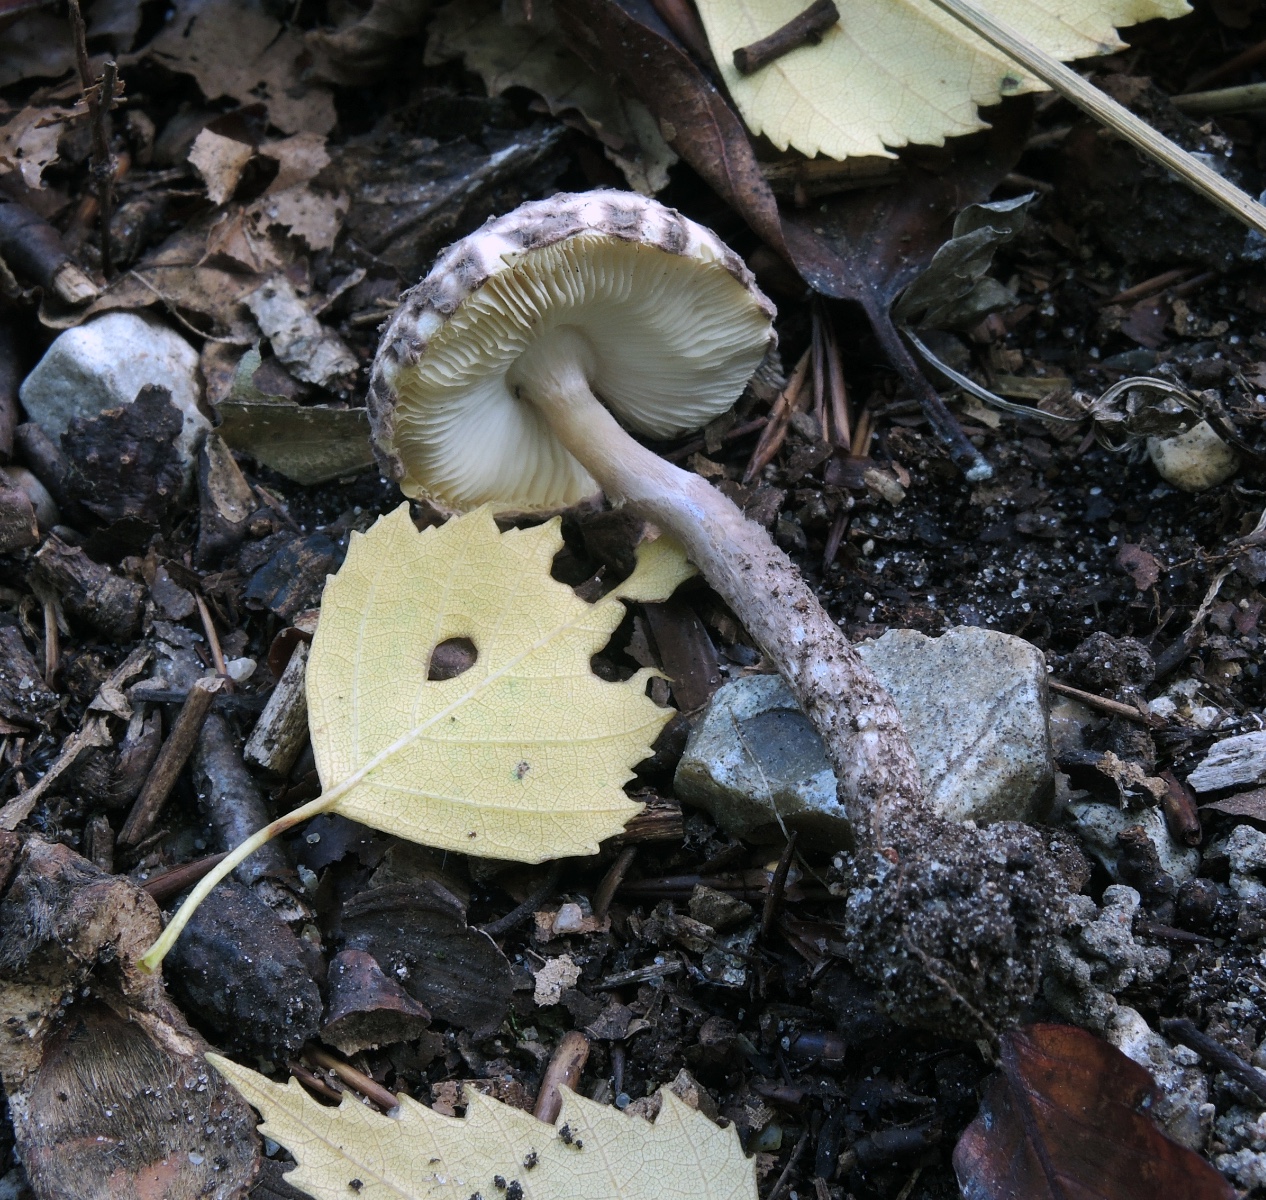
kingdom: Fungi
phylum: Basidiomycota
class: Agaricomycetes
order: Agaricales
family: Agaricaceae
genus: Lepiota
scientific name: Lepiota fuscovinacea
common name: vinrød parasolhat
